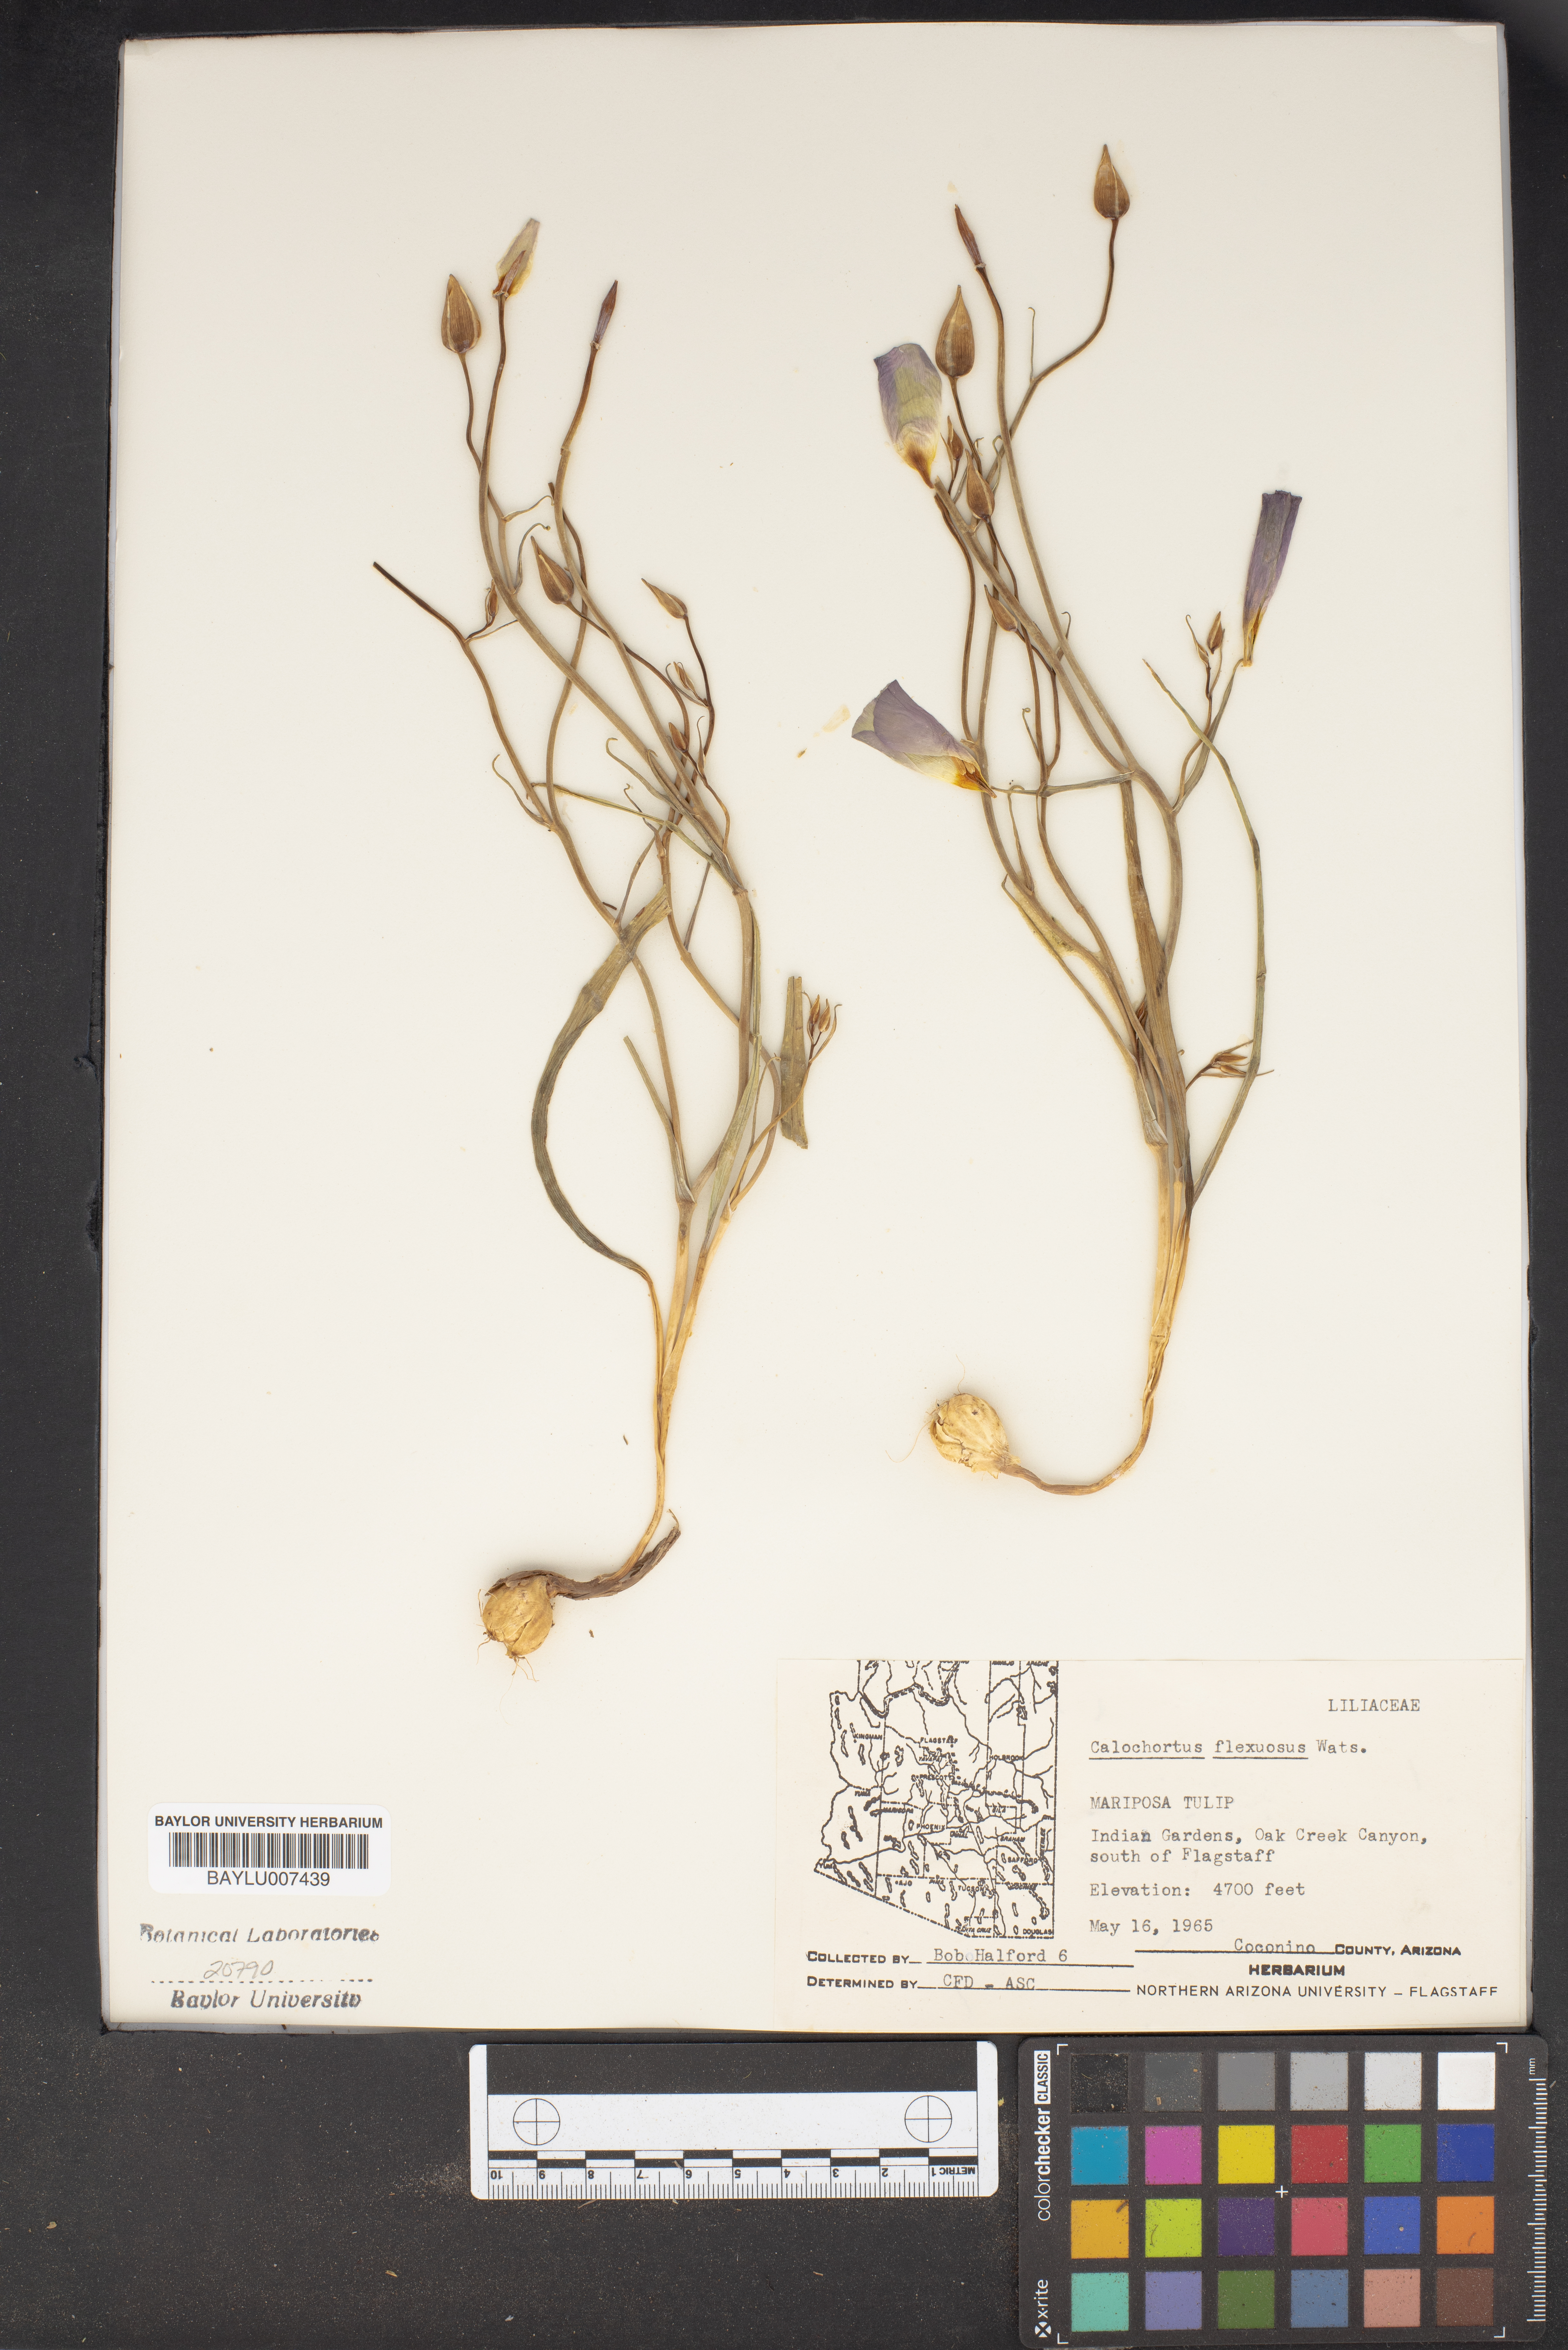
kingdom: Plantae
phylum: Tracheophyta
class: Liliopsida
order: Liliales
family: Liliaceae
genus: Calochortus
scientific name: Calochortus flexuosus
